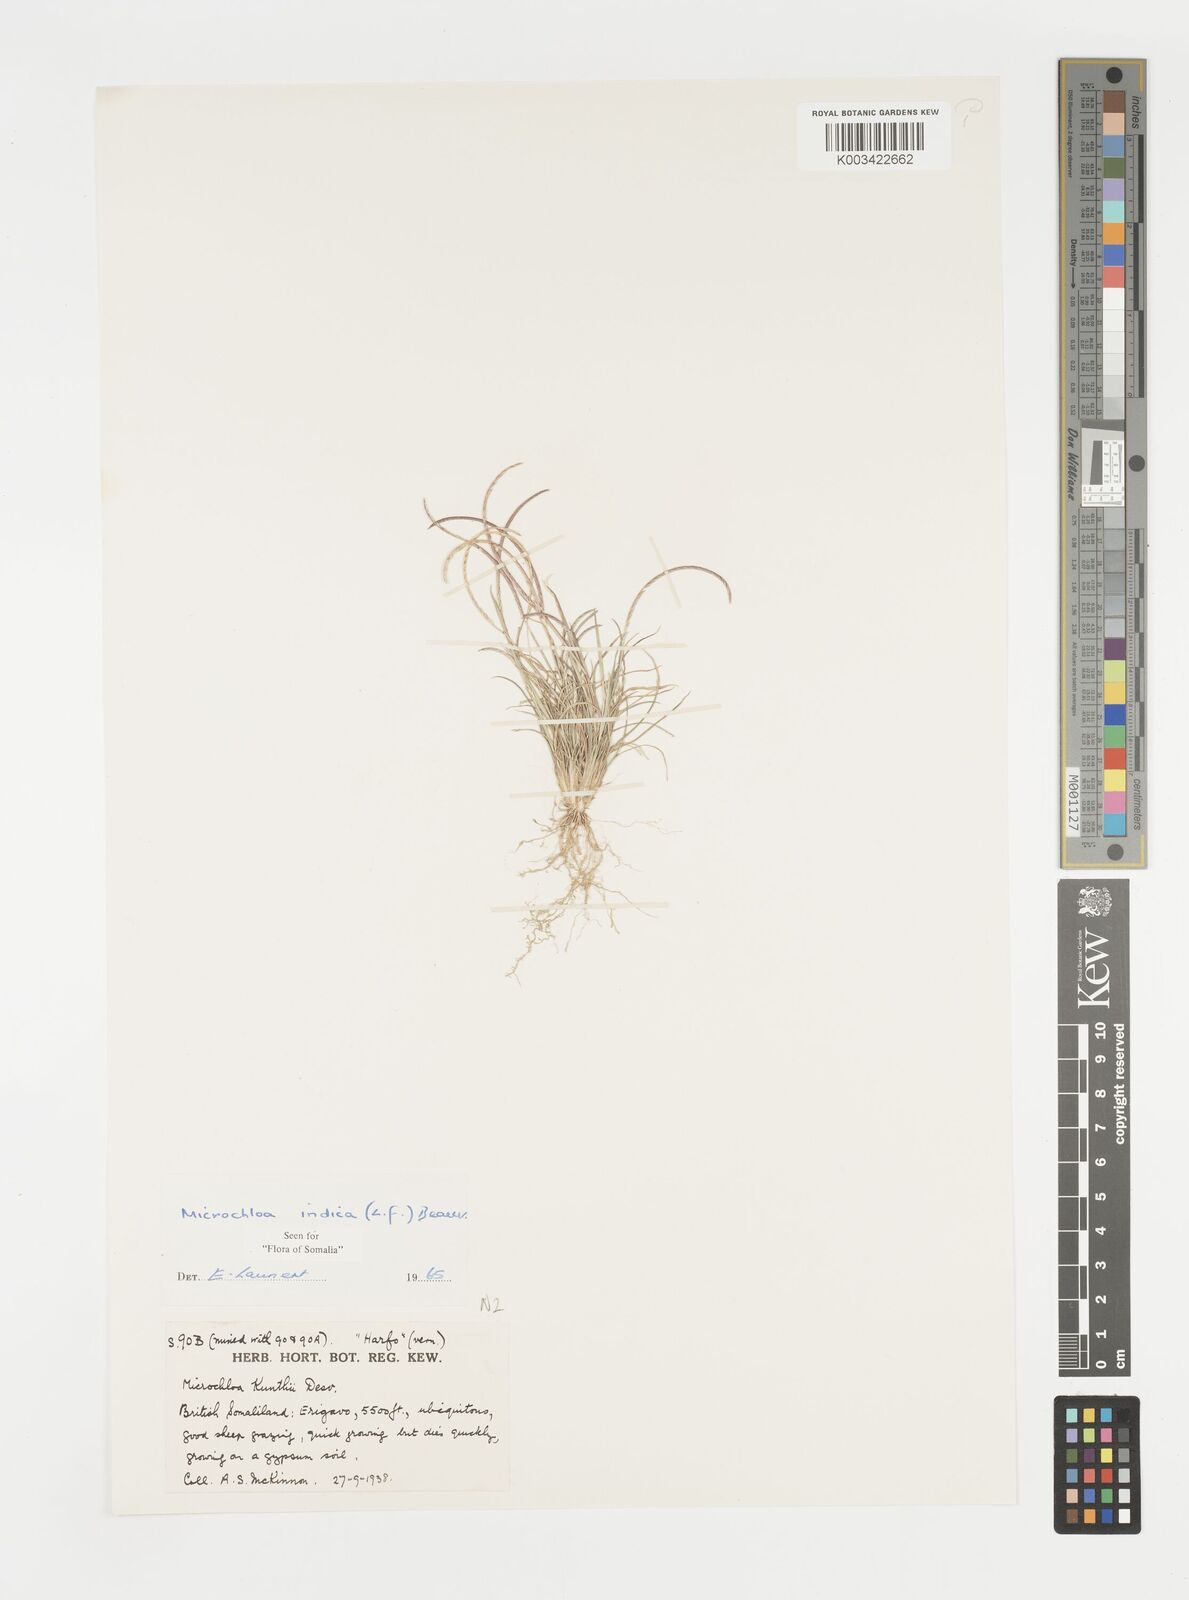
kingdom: Plantae
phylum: Tracheophyta
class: Liliopsida
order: Poales
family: Poaceae
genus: Microchloa
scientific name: Microchloa indica
